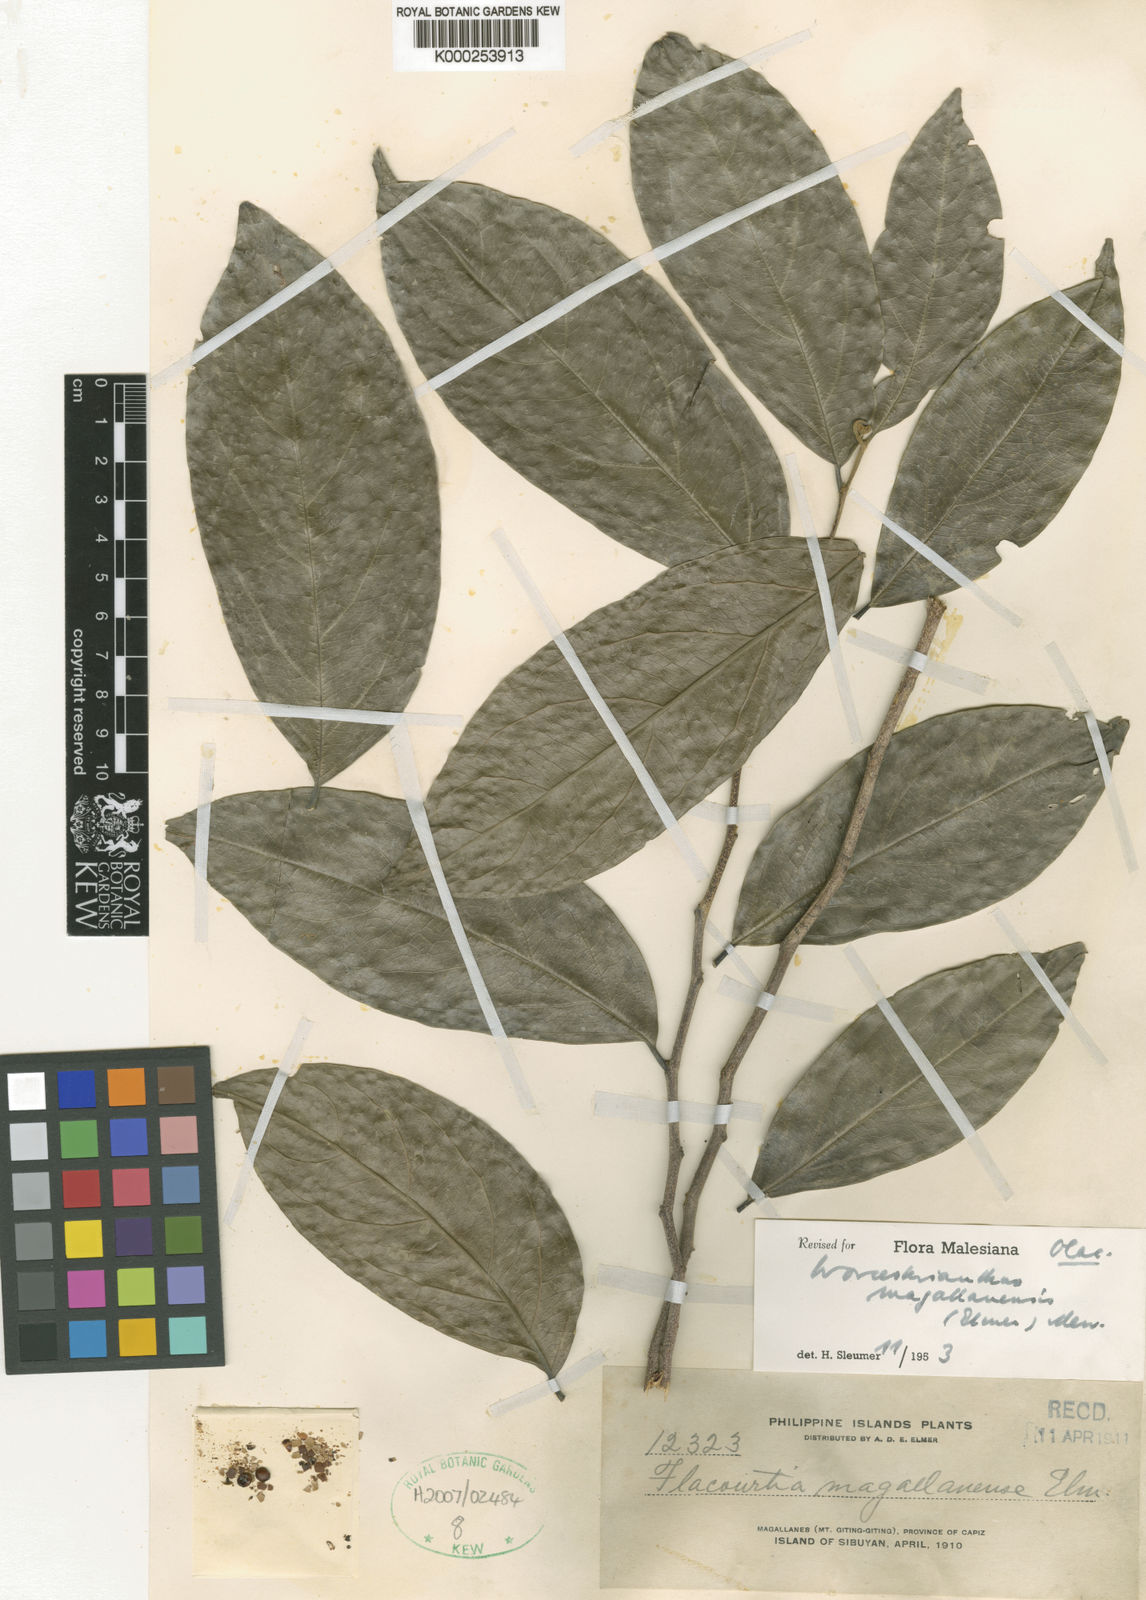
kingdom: Plantae
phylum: Tracheophyta
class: Magnoliopsida
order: Malpighiales
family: Pandaceae
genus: Microdesmis
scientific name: Microdesmis magallanensis
